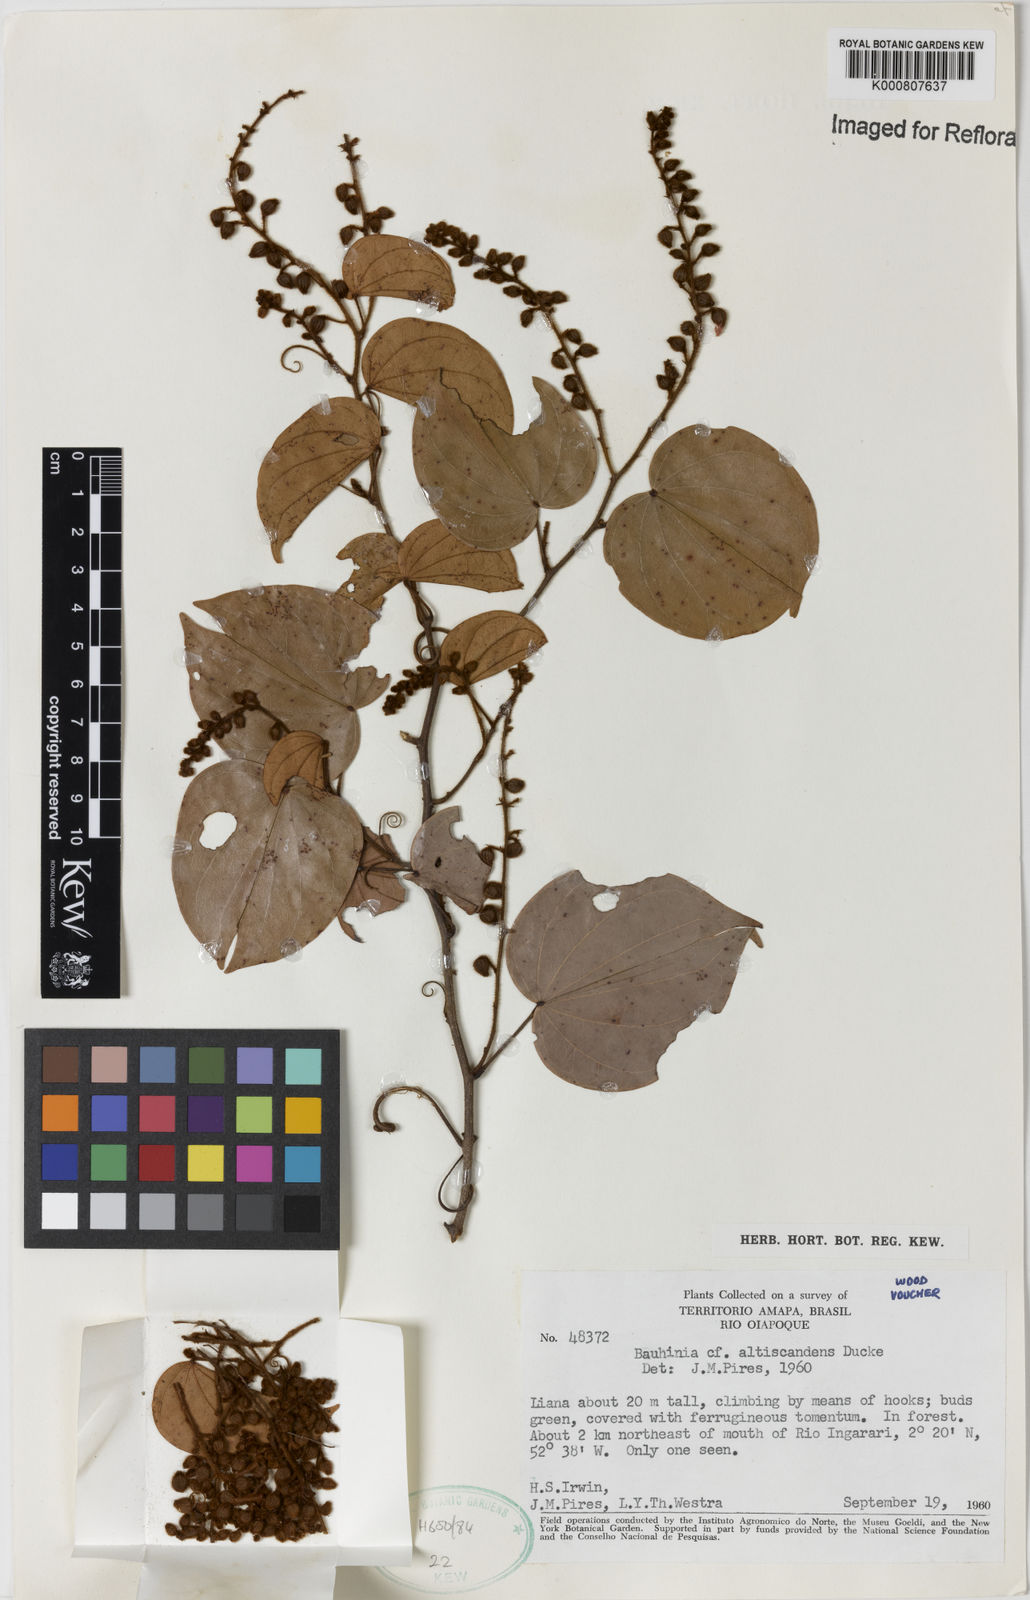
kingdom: Plantae
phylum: Tracheophyta
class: Magnoliopsida
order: Fabales
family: Fabaceae
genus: Schnella
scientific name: Schnella altiscandens
